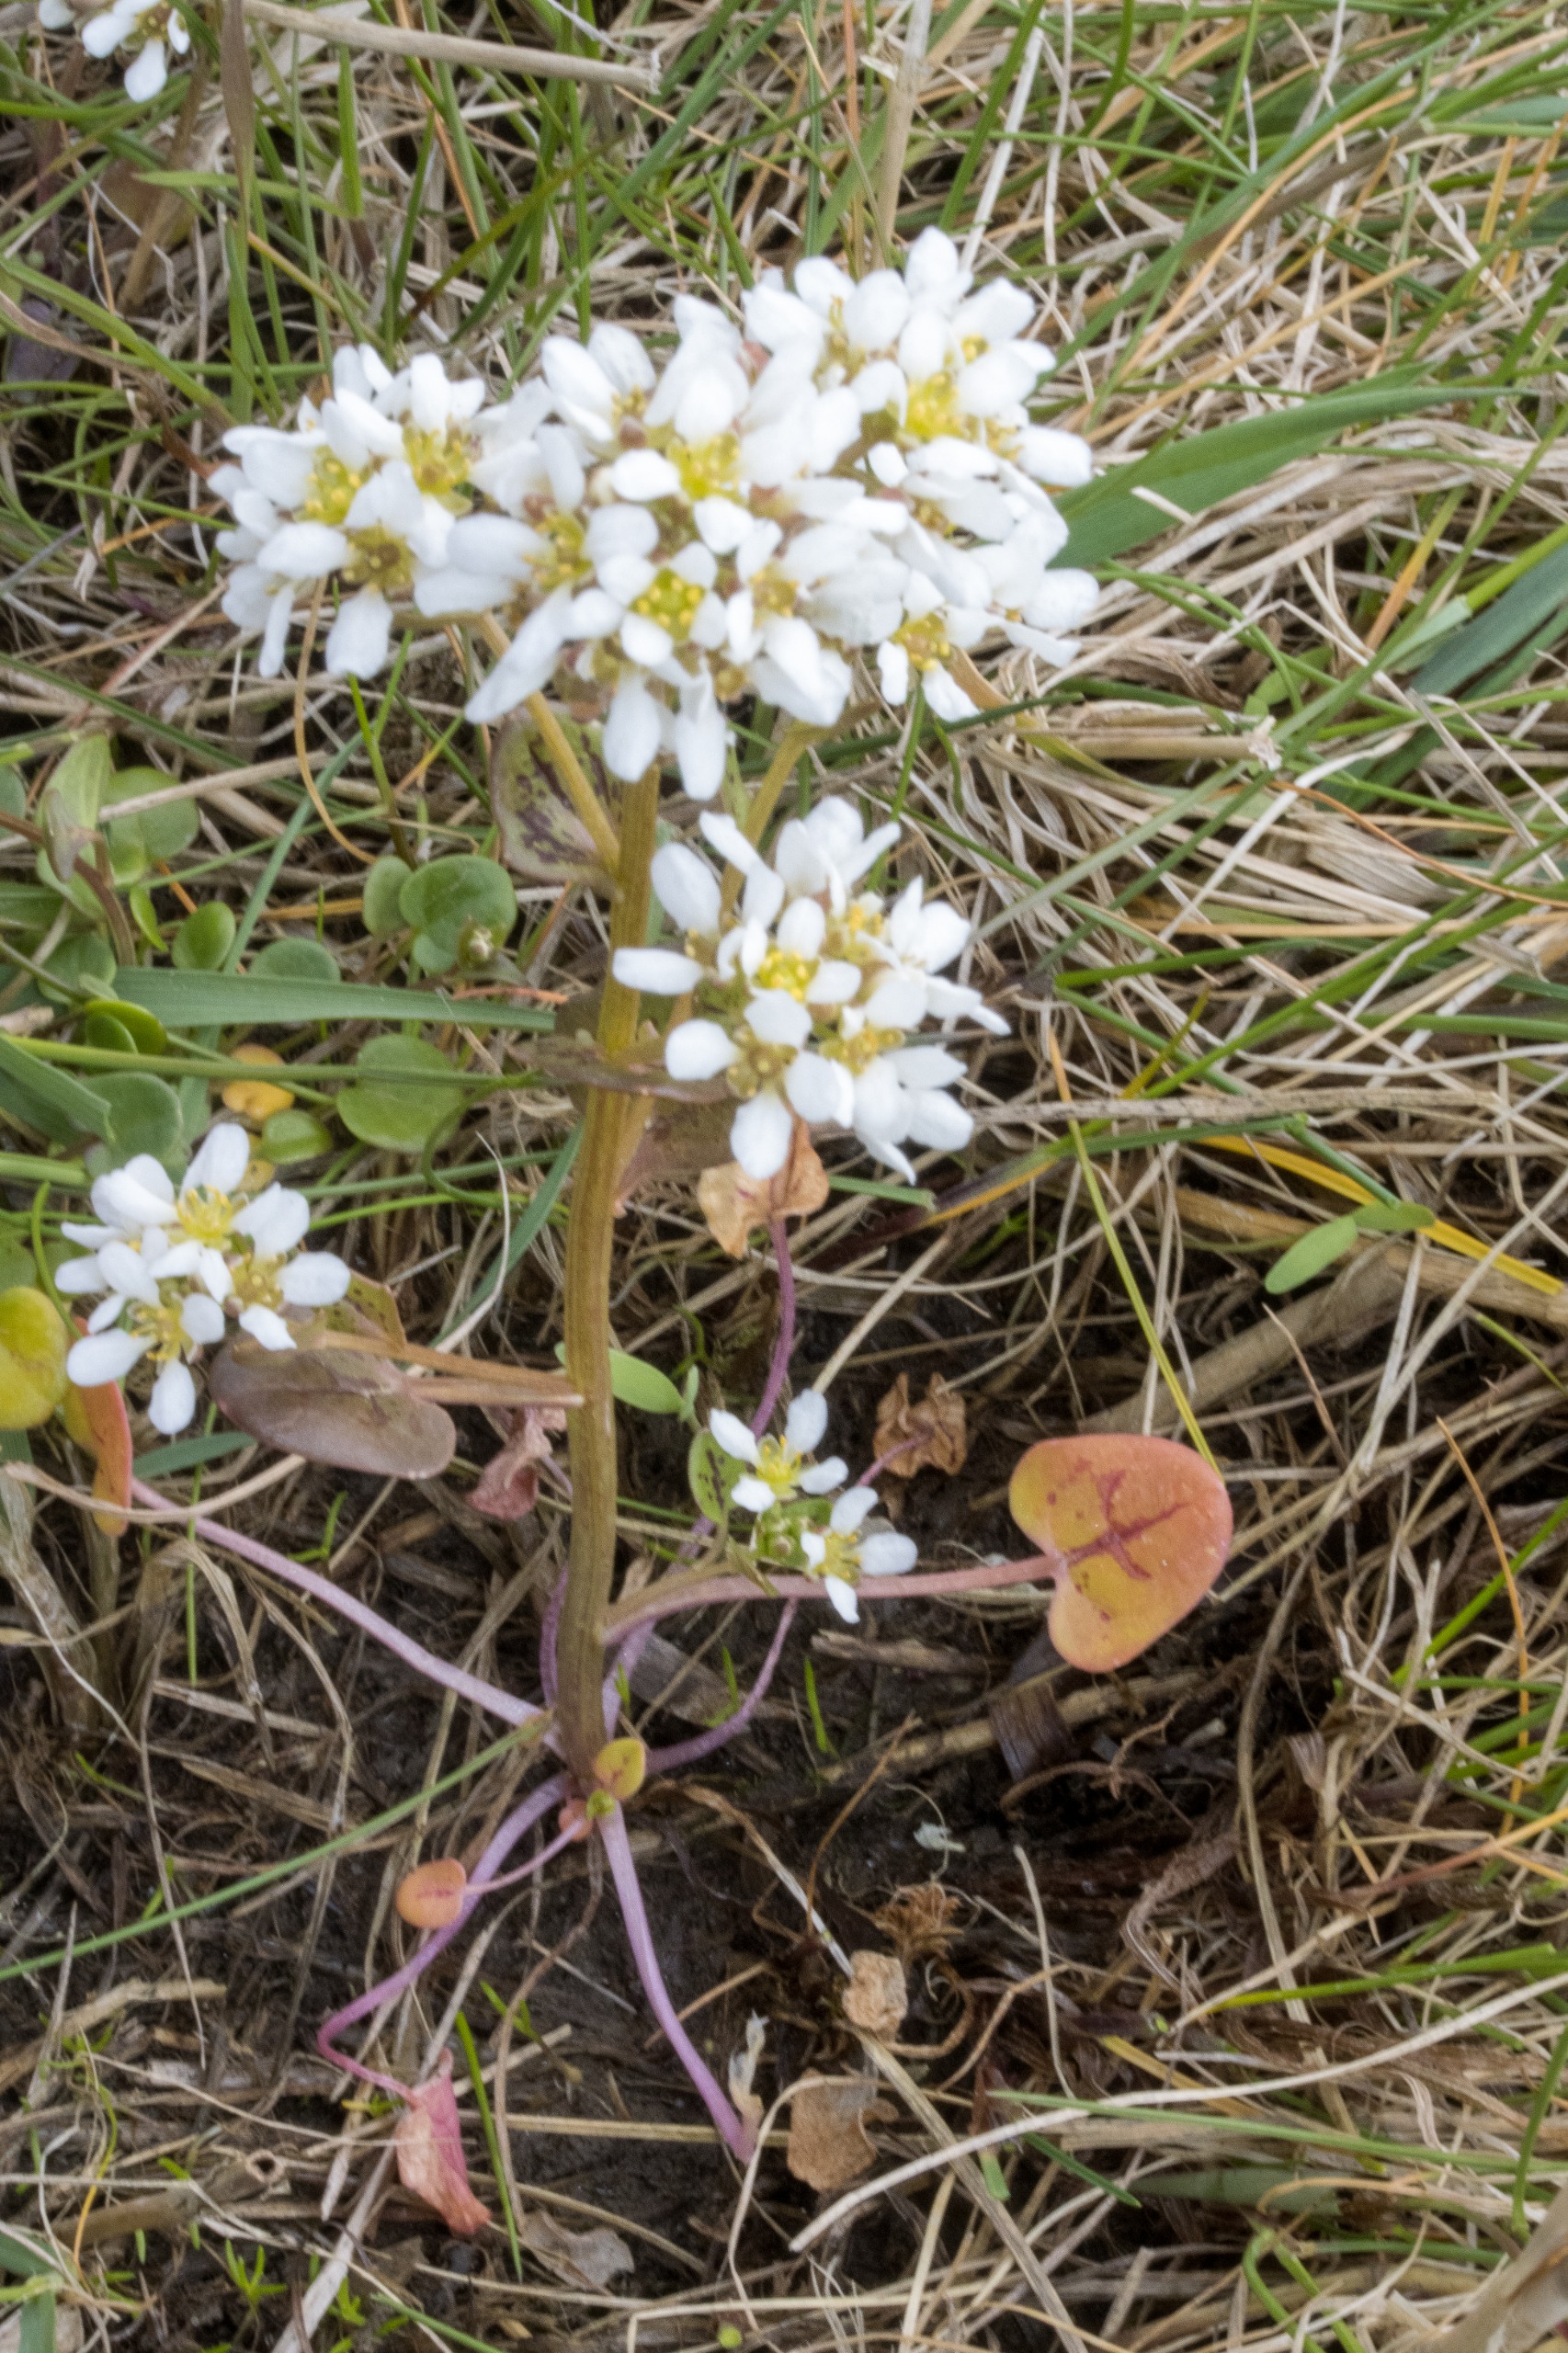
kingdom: Plantae
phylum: Tracheophyta
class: Magnoliopsida
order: Brassicales
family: Brassicaceae
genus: Cochlearia
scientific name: Cochlearia danica
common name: Dansk kokleare
